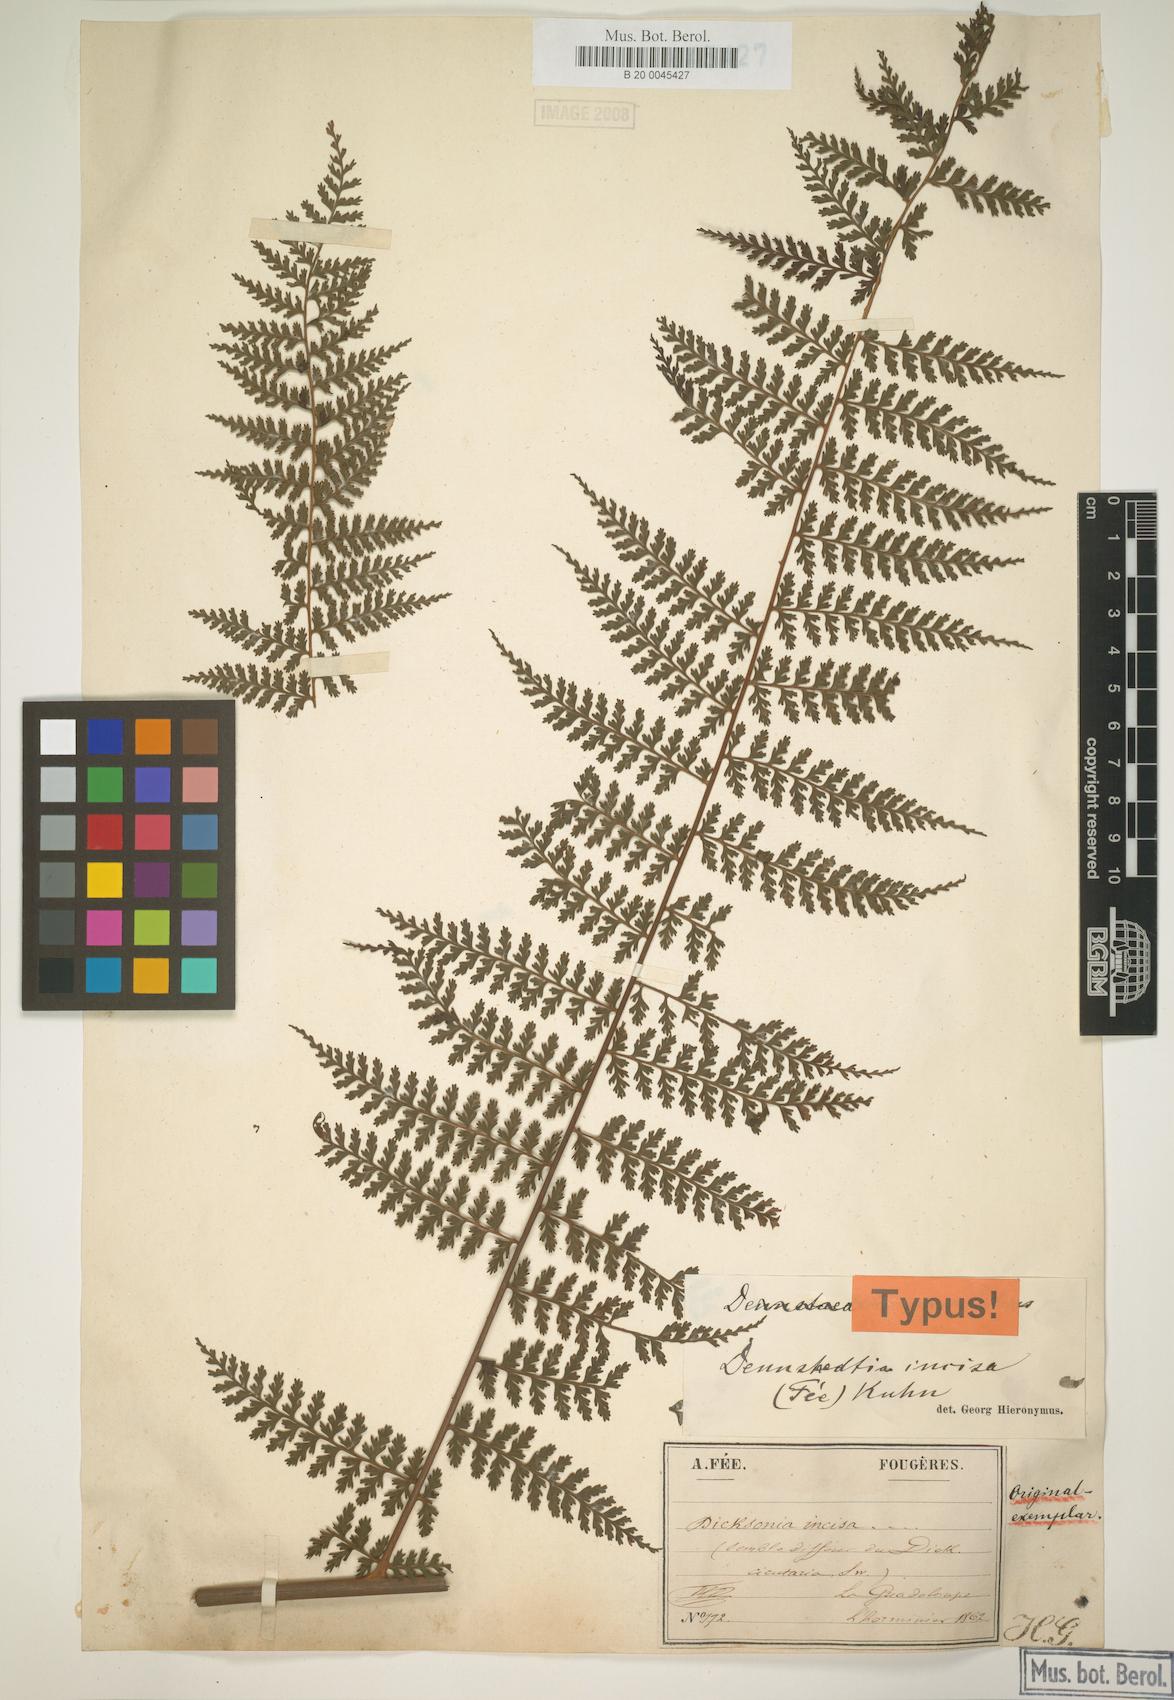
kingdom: Plantae
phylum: Tracheophyta
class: Polypodiopsida
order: Polypodiales
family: Dennstaedtiaceae
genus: Dennstaedtia
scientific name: Dennstaedtia obtusifolia
